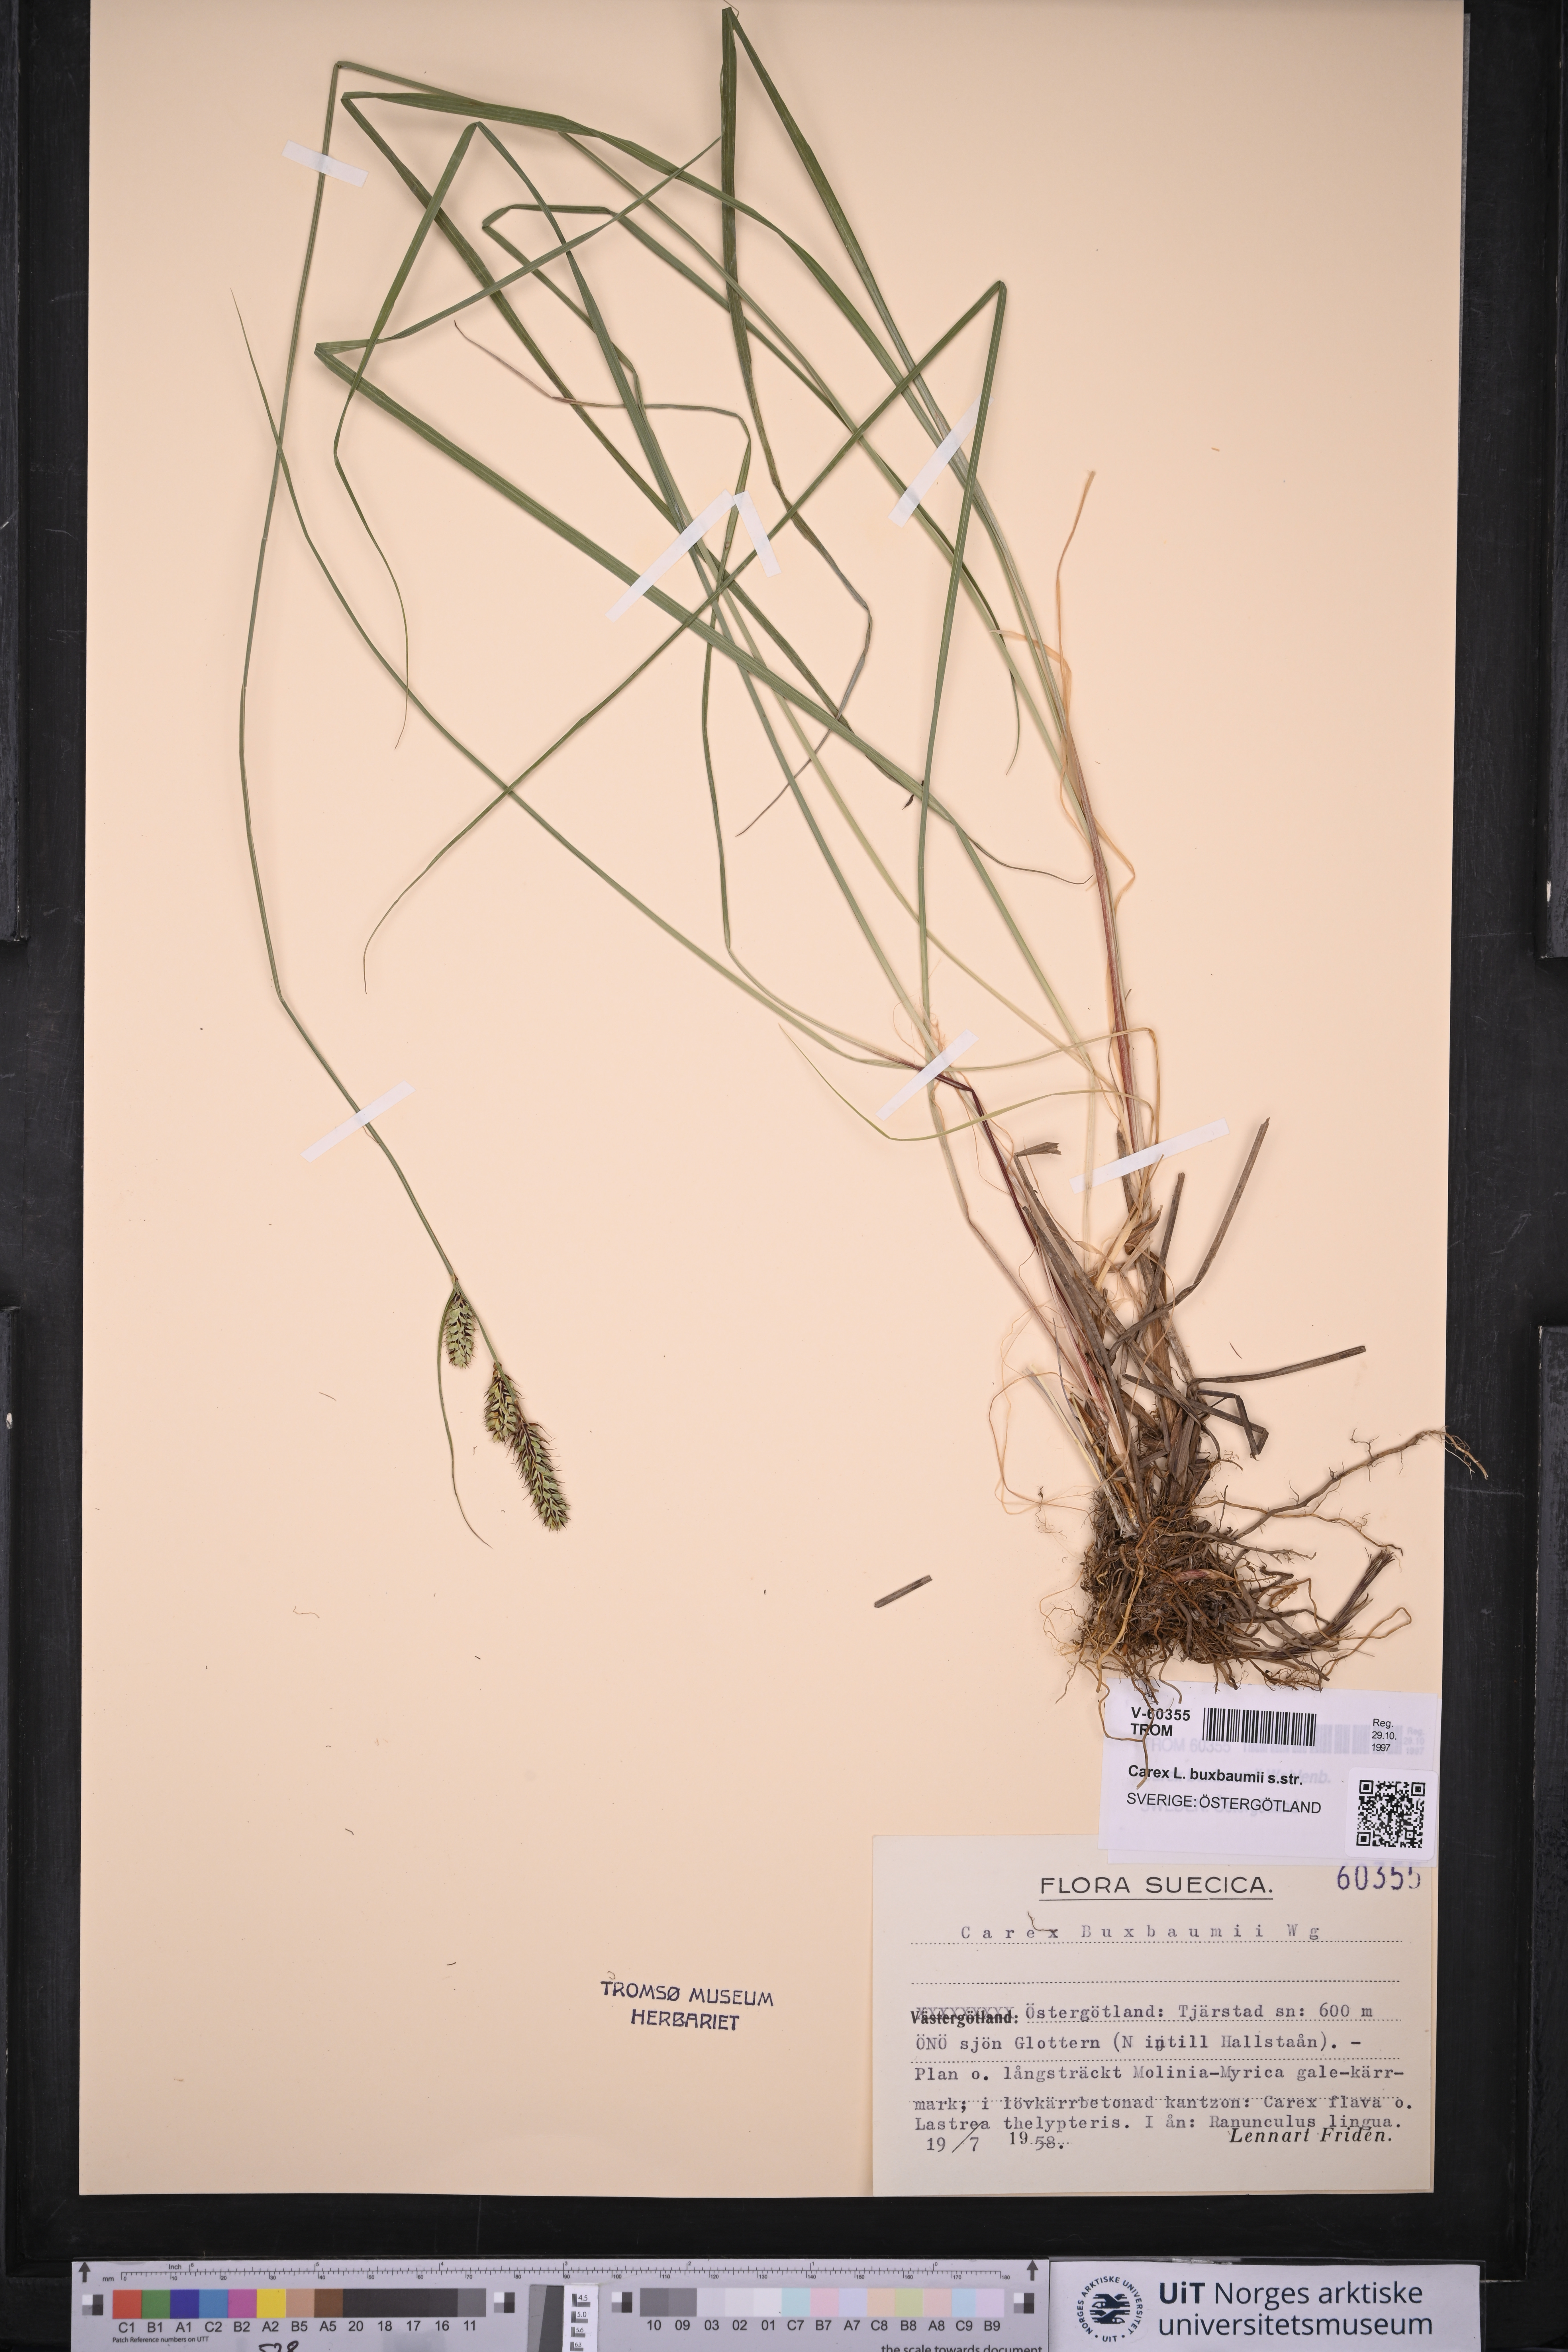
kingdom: Plantae
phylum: Tracheophyta
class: Liliopsida
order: Poales
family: Cyperaceae
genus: Carex
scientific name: Carex buxbaumii
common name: Club sedge
